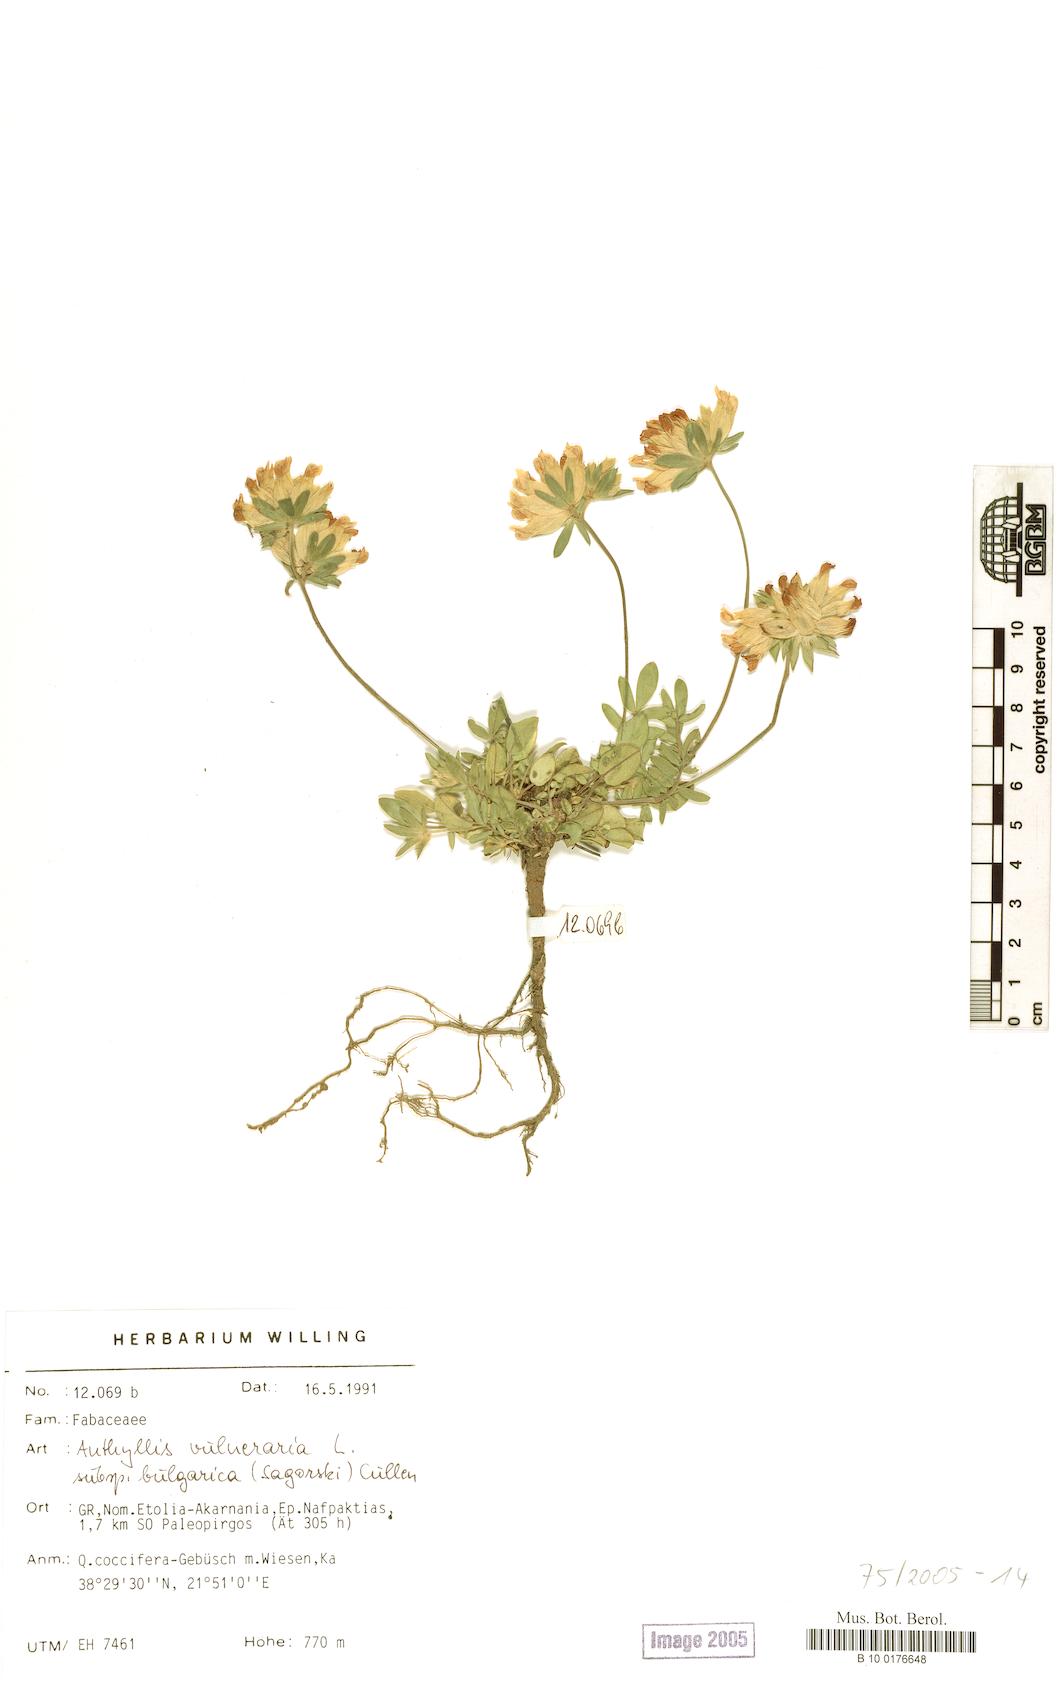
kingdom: Plantae
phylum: Tracheophyta
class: Magnoliopsida
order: Fabales
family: Fabaceae
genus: Anthyllis
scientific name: Anthyllis vulneraria
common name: Kidney vetch
